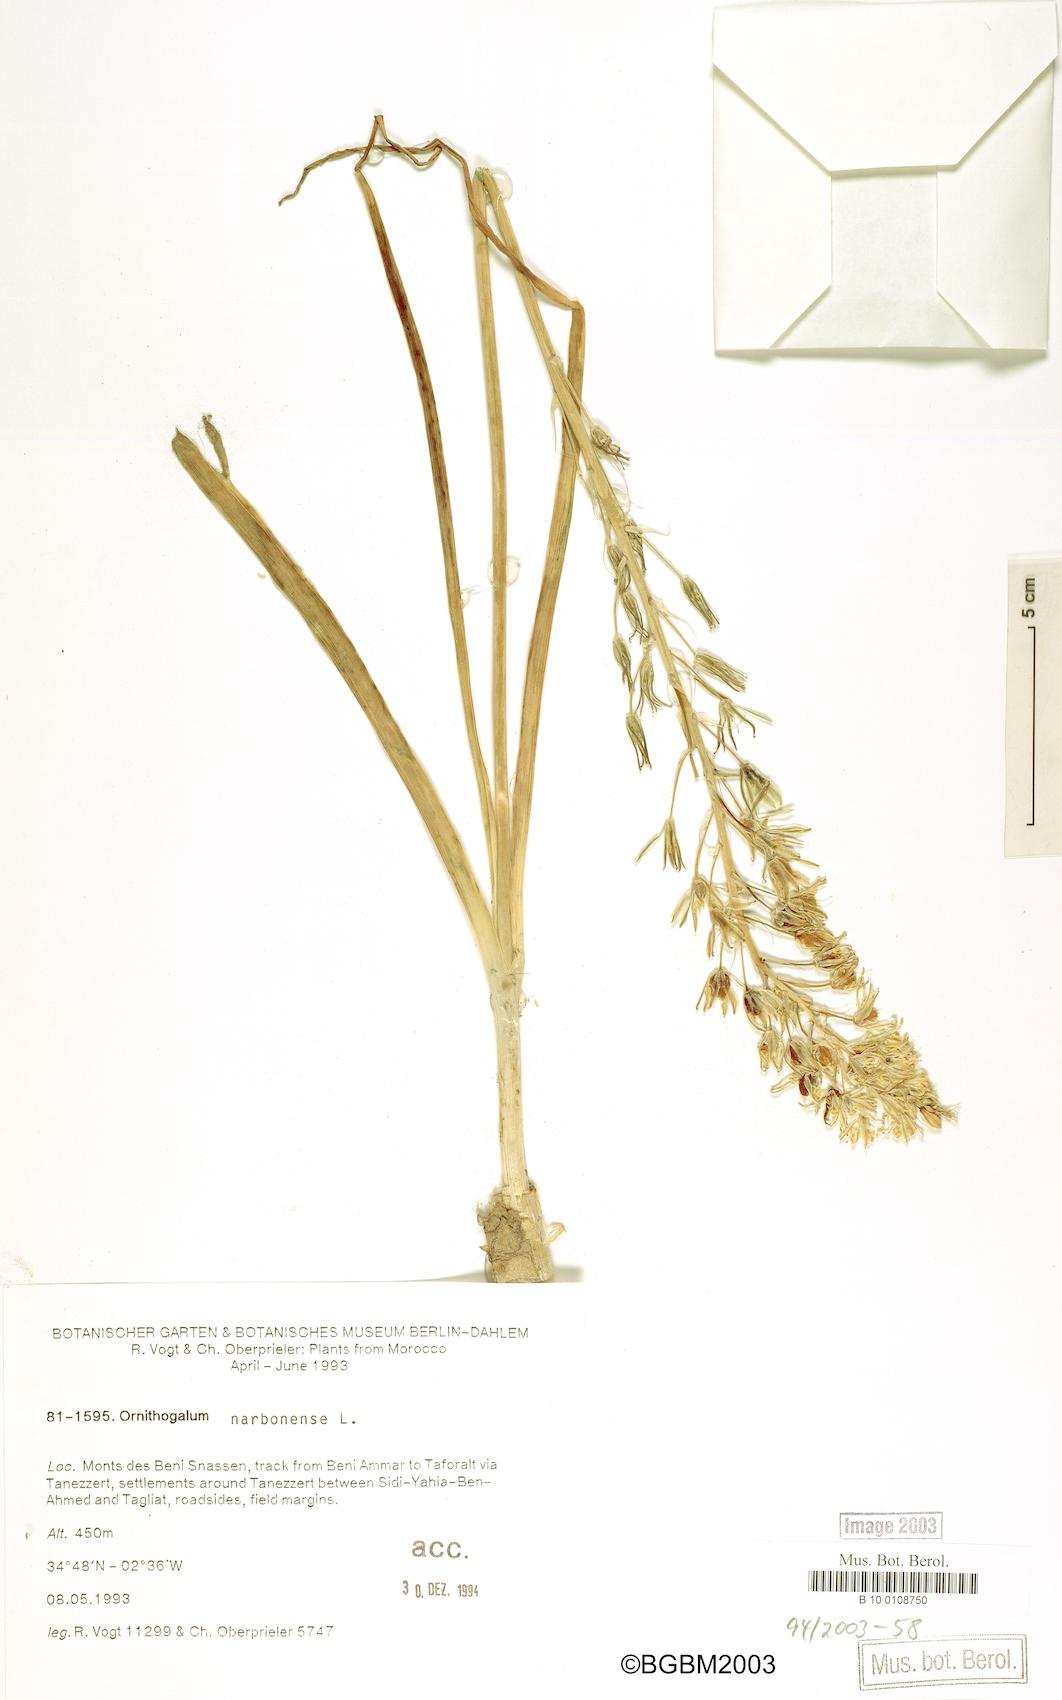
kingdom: Plantae
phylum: Tracheophyta
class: Liliopsida
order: Asparagales
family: Asparagaceae
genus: Ornithogalum
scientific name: Ornithogalum narbonense
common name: Bath-asparagus
